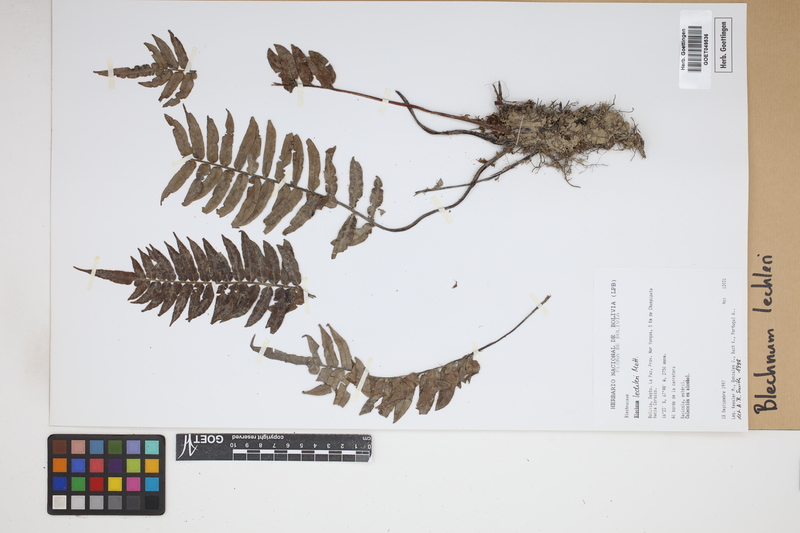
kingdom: Plantae
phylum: Tracheophyta
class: Polypodiopsida
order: Polypodiales
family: Blechnaceae
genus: Parablechnum
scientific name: Parablechnum lechleri
